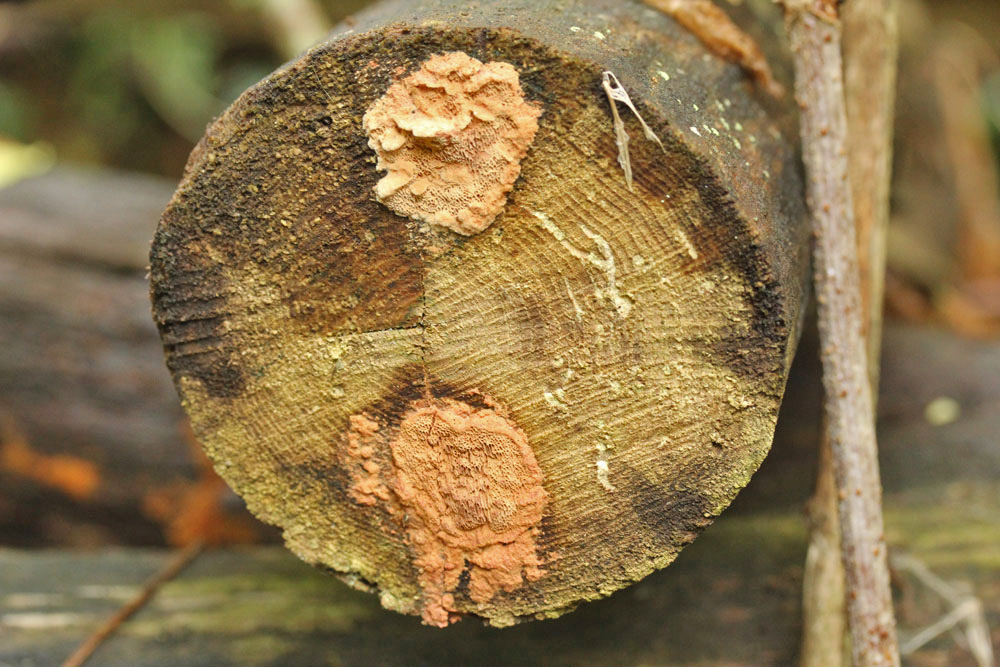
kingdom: Fungi
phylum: Basidiomycota
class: Agaricomycetes
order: Polyporales
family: Phanerochaetaceae
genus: Hapalopilus
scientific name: Hapalopilus rutilans
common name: rødlig okkerporesvamp
